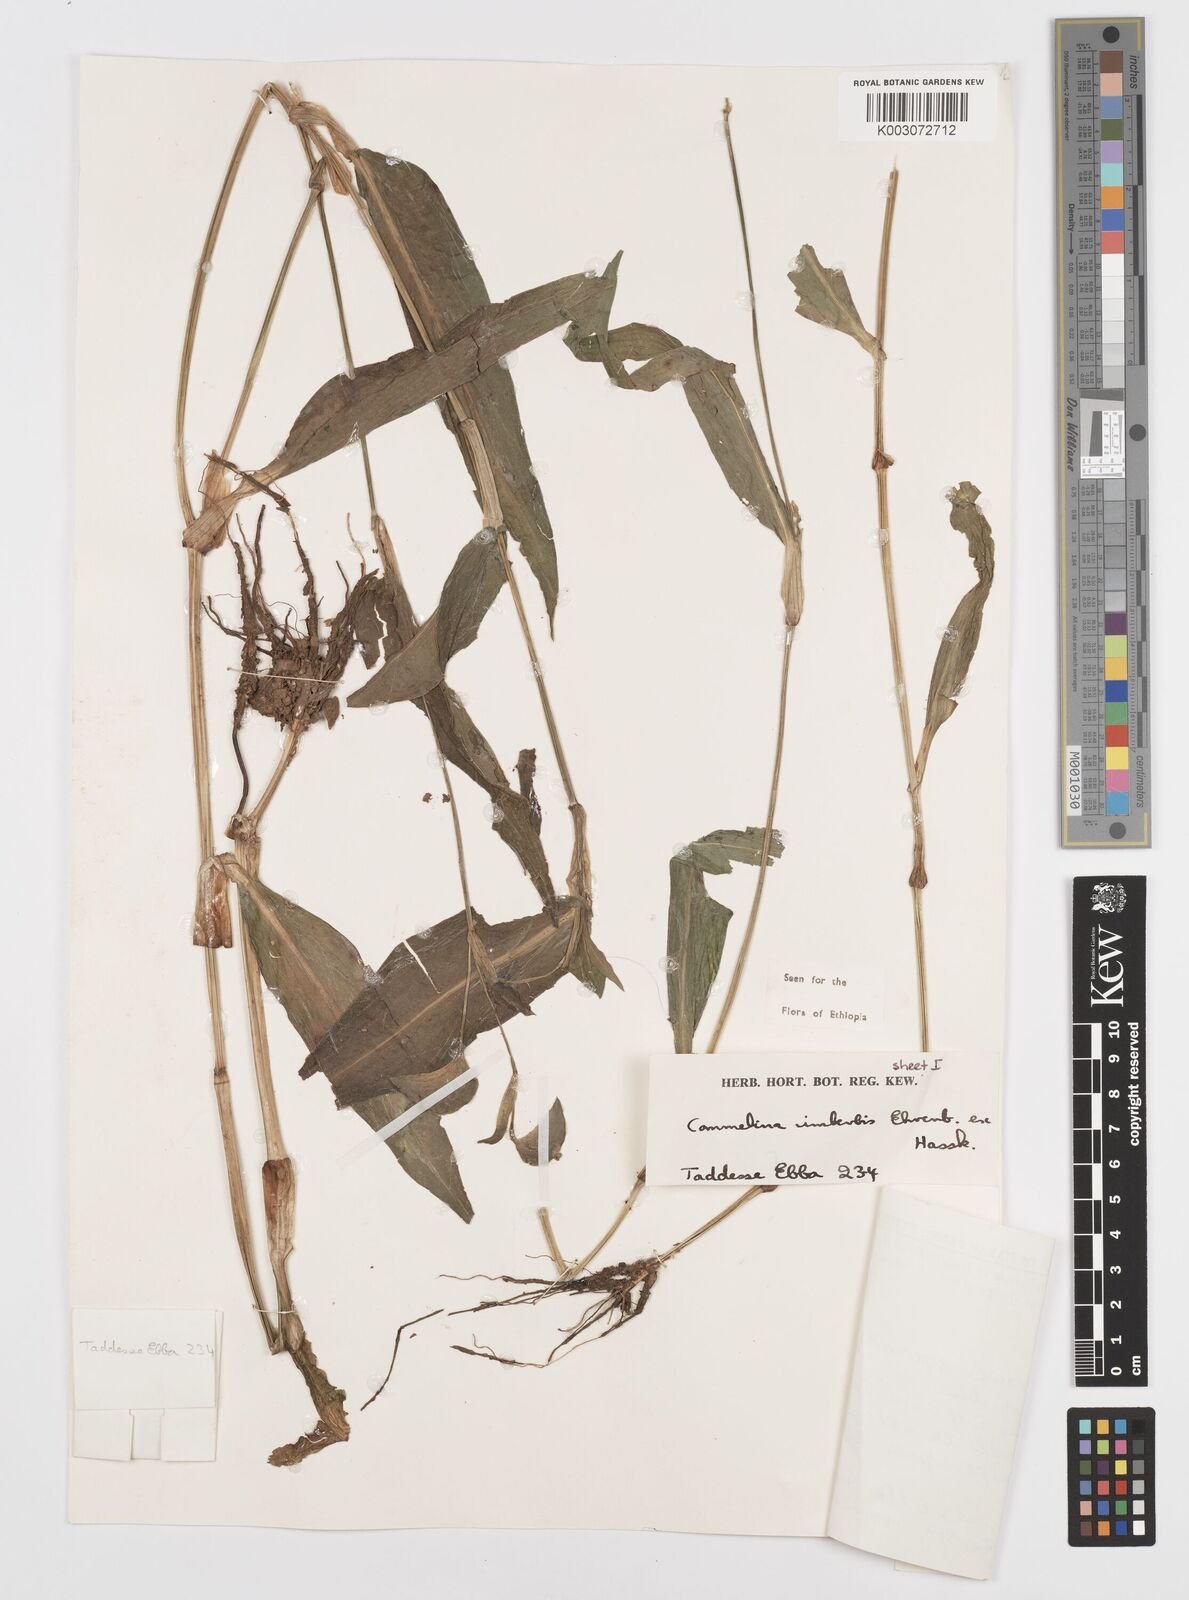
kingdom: Plantae
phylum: Tracheophyta
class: Liliopsida
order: Commelinales
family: Commelinaceae
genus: Commelina
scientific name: Commelina imberbis
